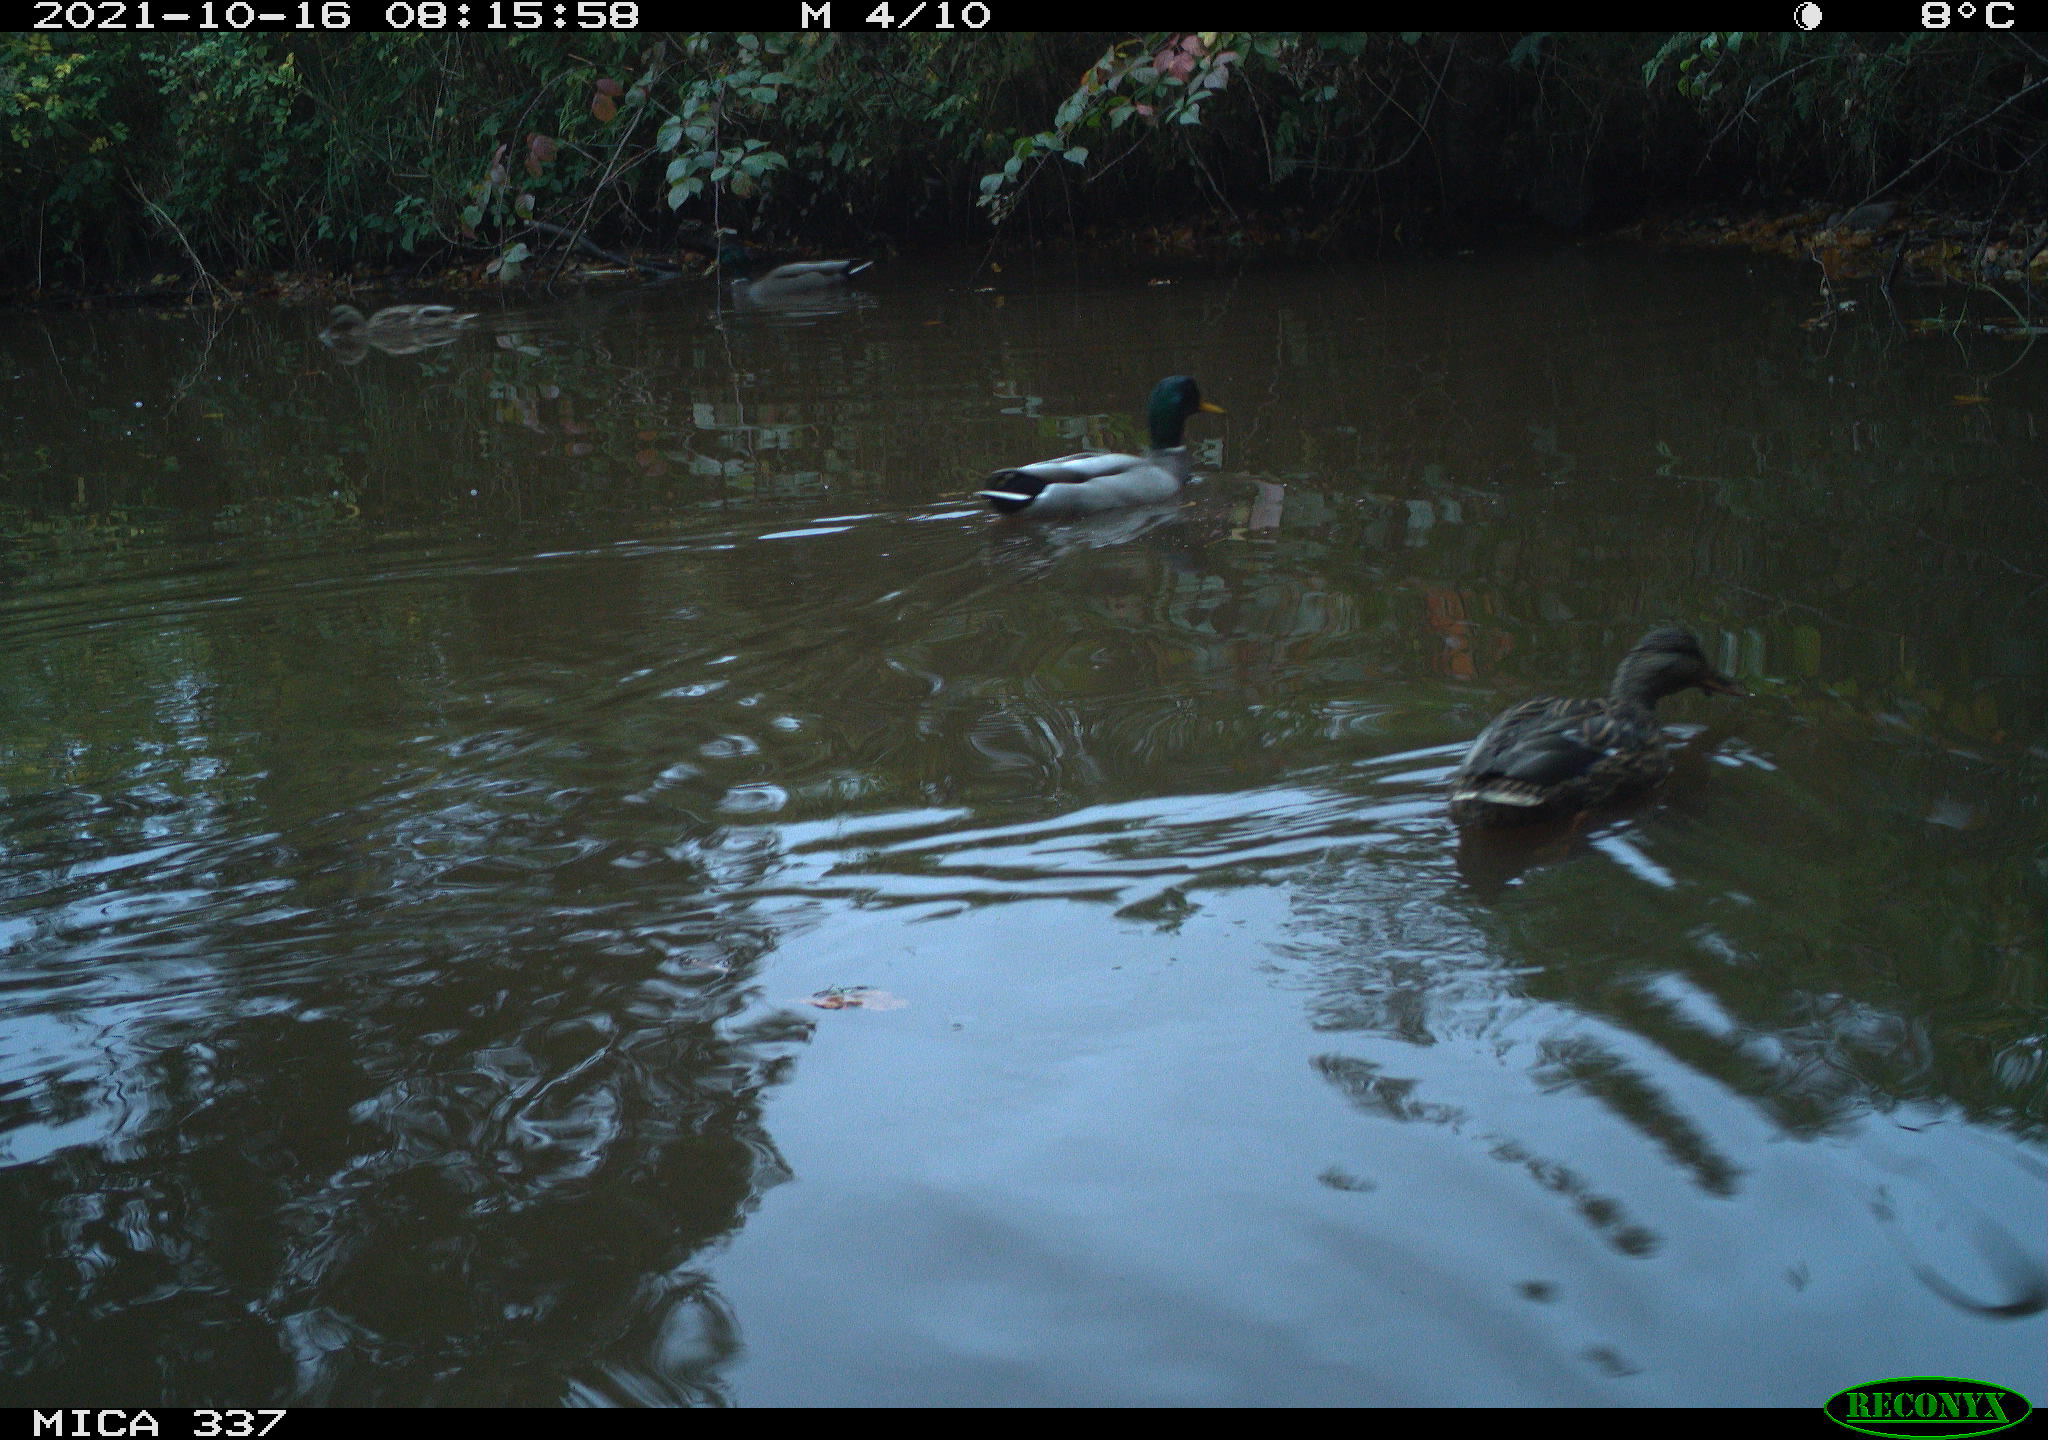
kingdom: Animalia
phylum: Chordata
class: Aves
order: Anseriformes
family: Anatidae
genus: Anas
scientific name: Anas platyrhynchos
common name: Mallard
